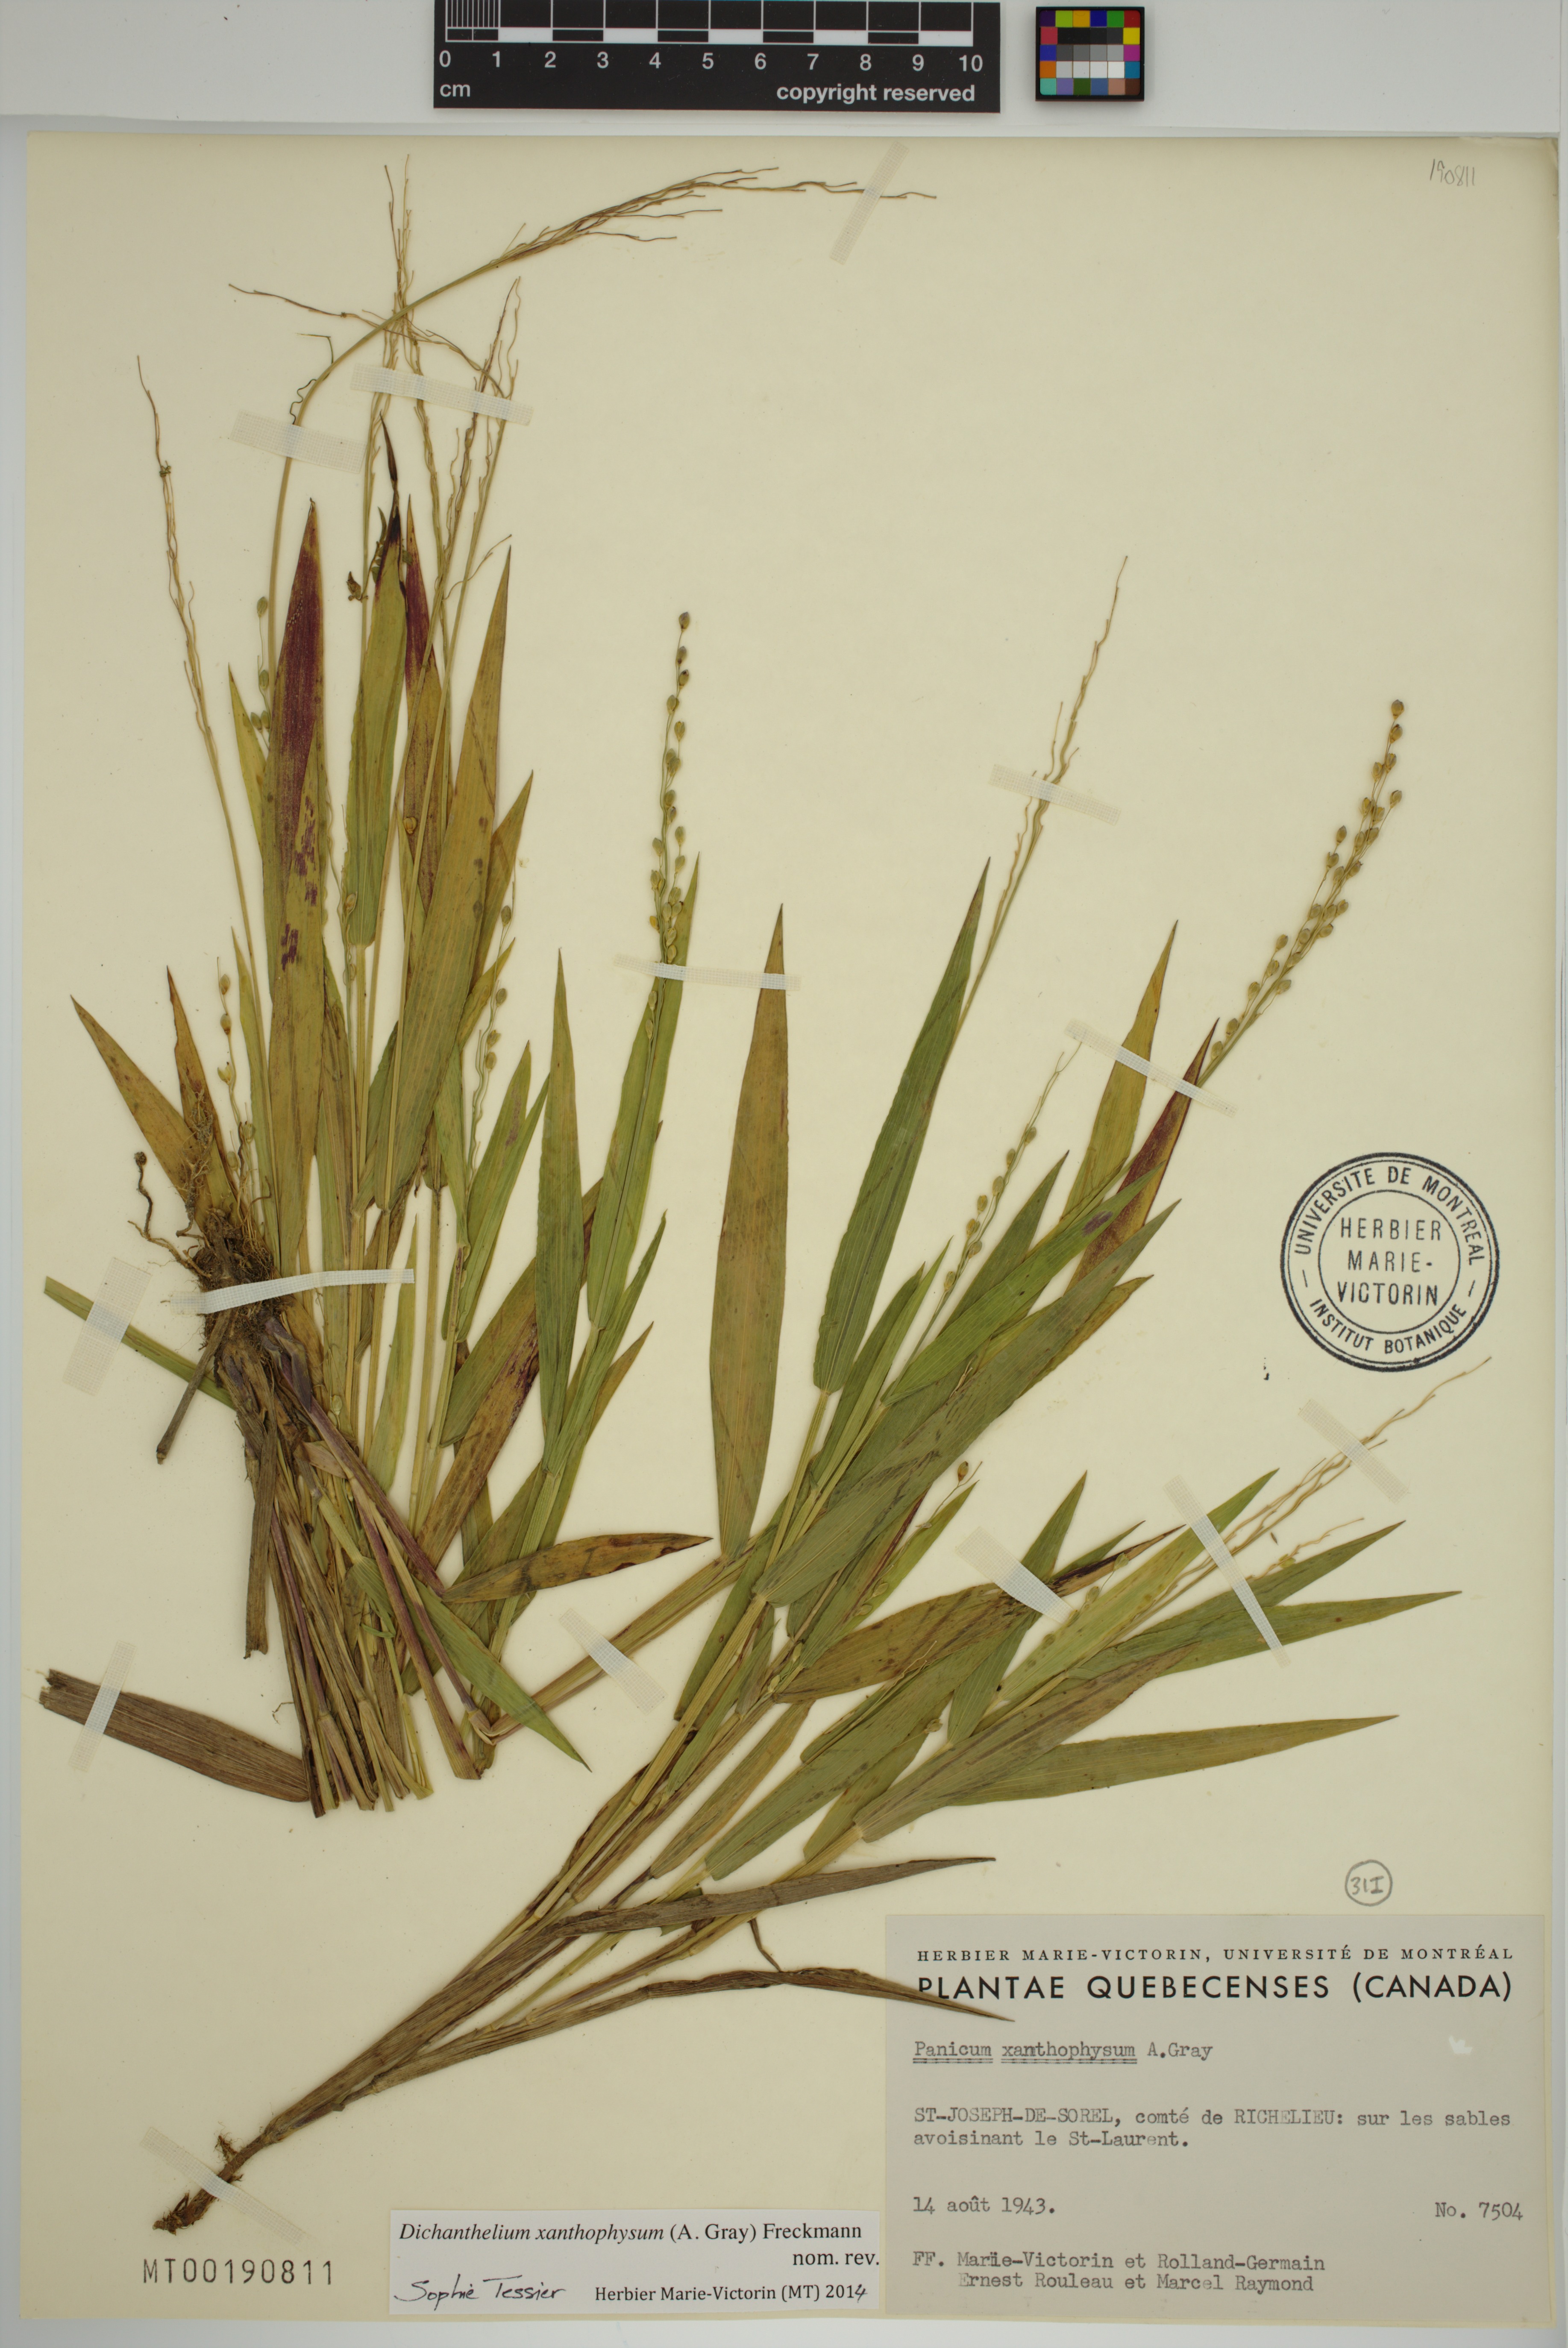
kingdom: Plantae
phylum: Tracheophyta
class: Liliopsida
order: Poales
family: Poaceae
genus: Dichanthelium
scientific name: Dichanthelium xanthophysum
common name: Pale panicgrass
